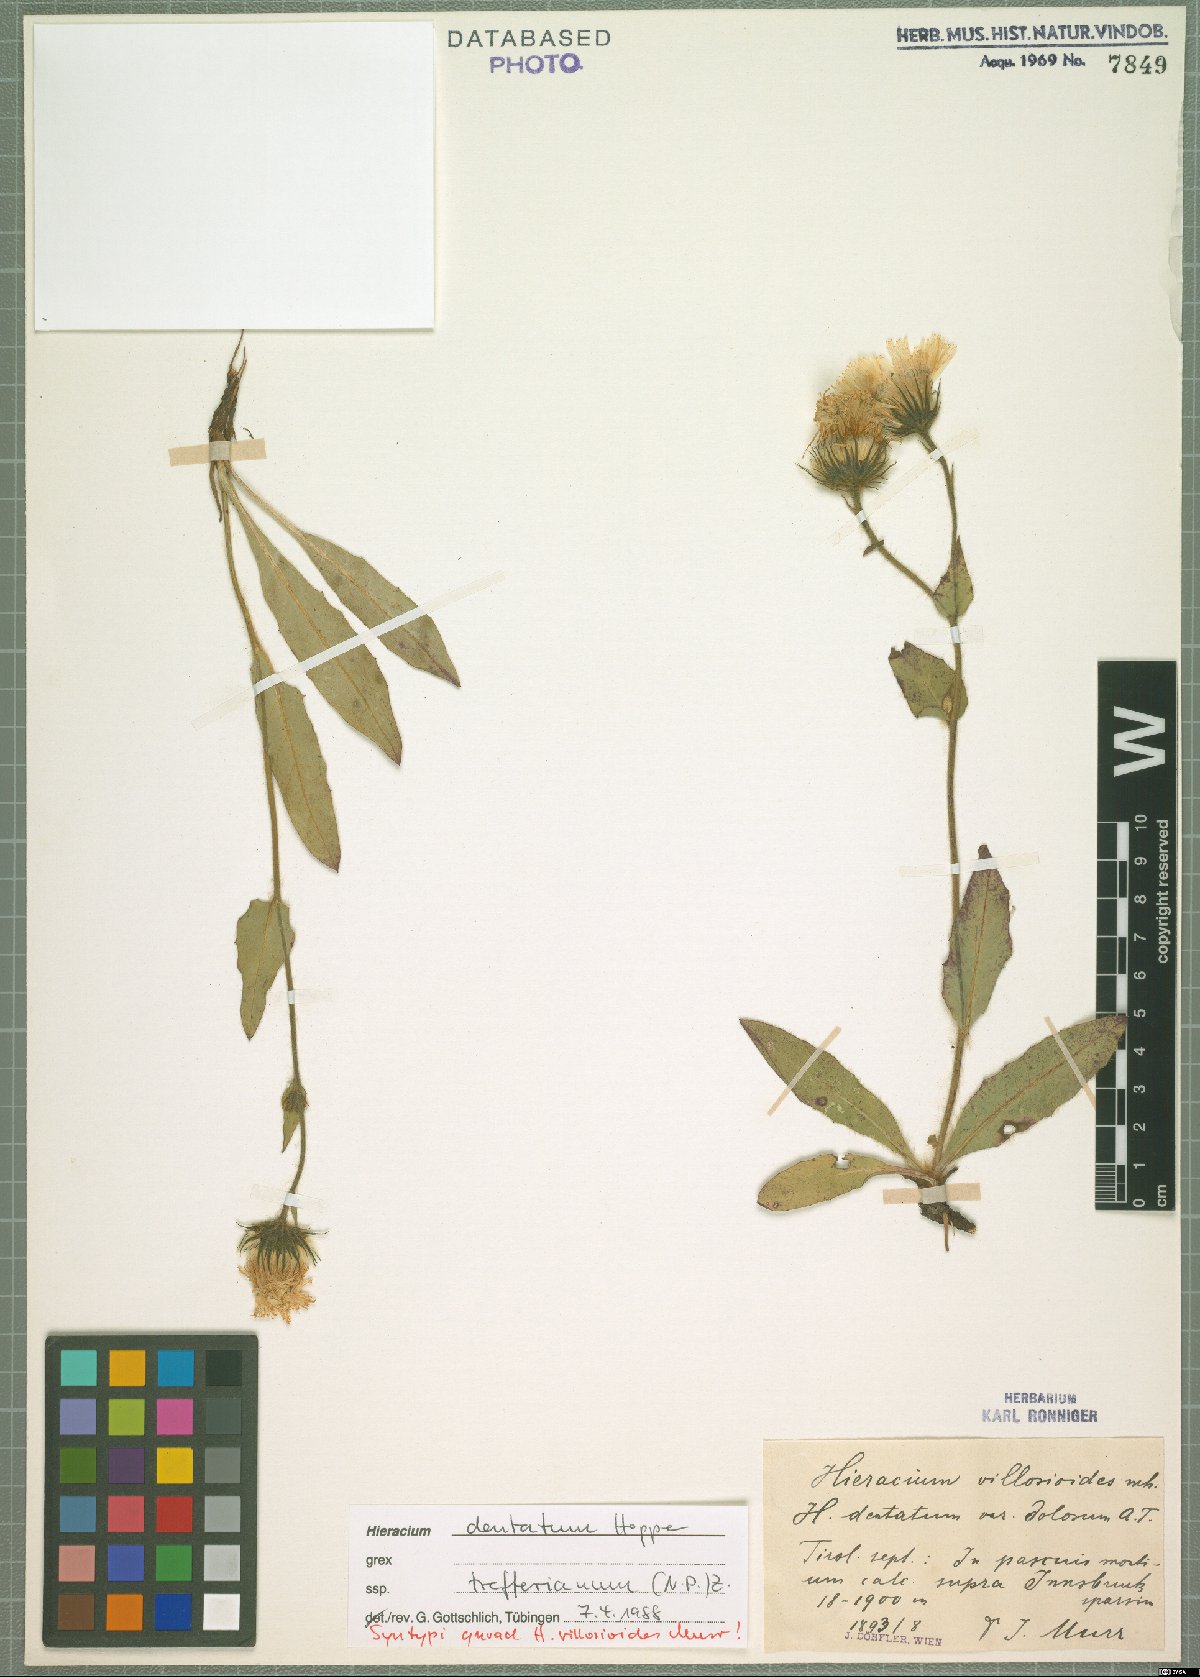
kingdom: Plantae
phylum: Tracheophyta
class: Magnoliopsida
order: Asterales
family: Asteraceae
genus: Hieracium
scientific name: Hieracium dentatum
